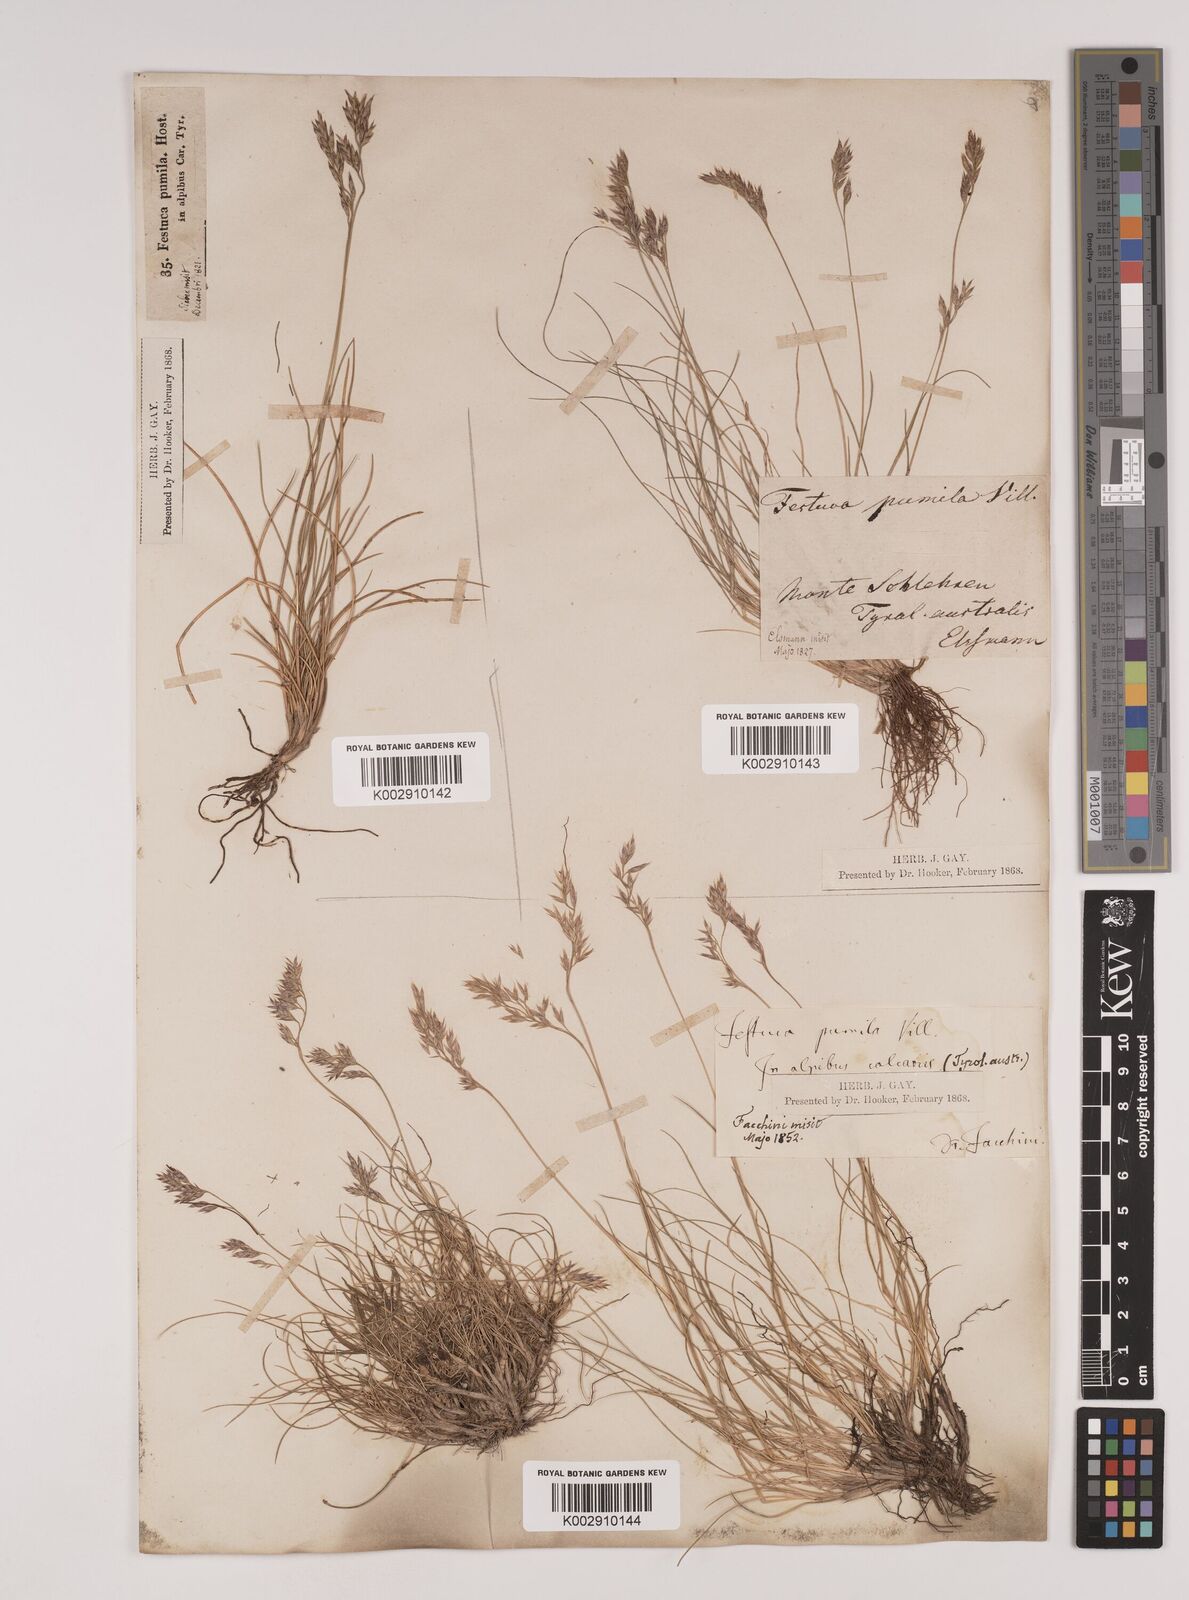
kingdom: Plantae
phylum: Tracheophyta
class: Liliopsida
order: Poales
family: Poaceae
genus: Festuca
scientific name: Festuca
